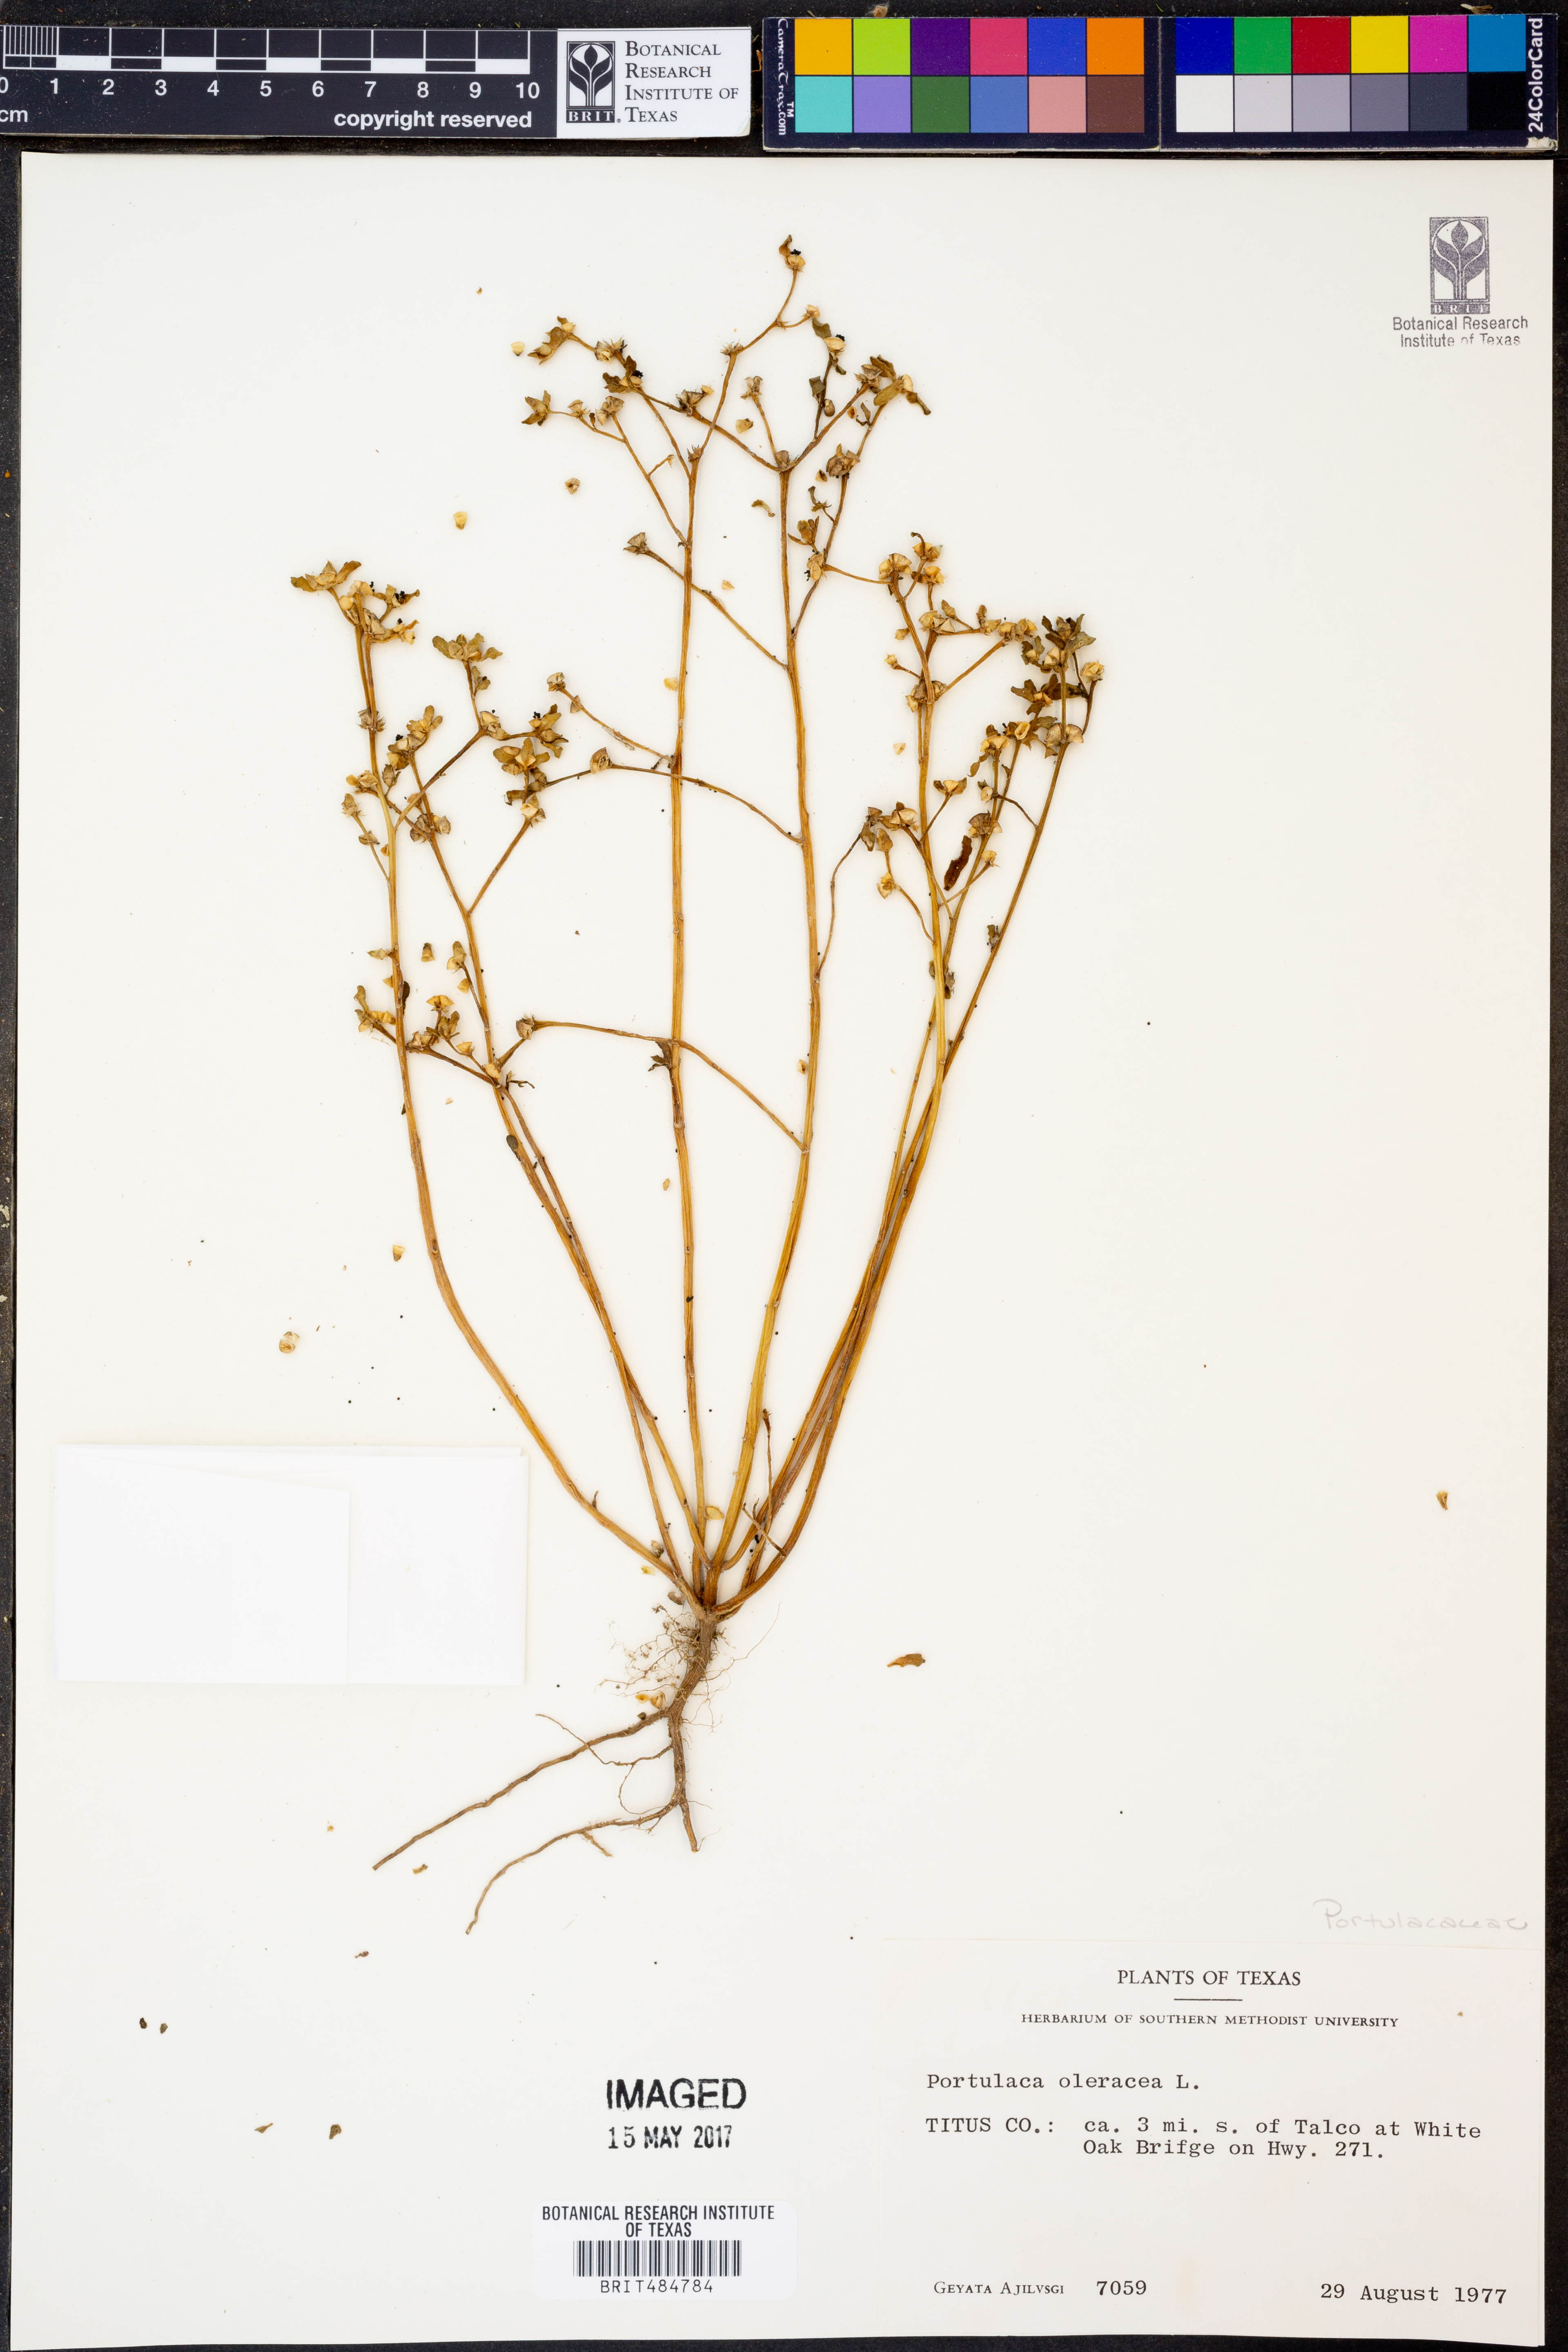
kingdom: Plantae
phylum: Tracheophyta
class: Magnoliopsida
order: Caryophyllales
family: Portulacaceae
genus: Portulaca
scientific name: Portulaca oleracea
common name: Common purslane
